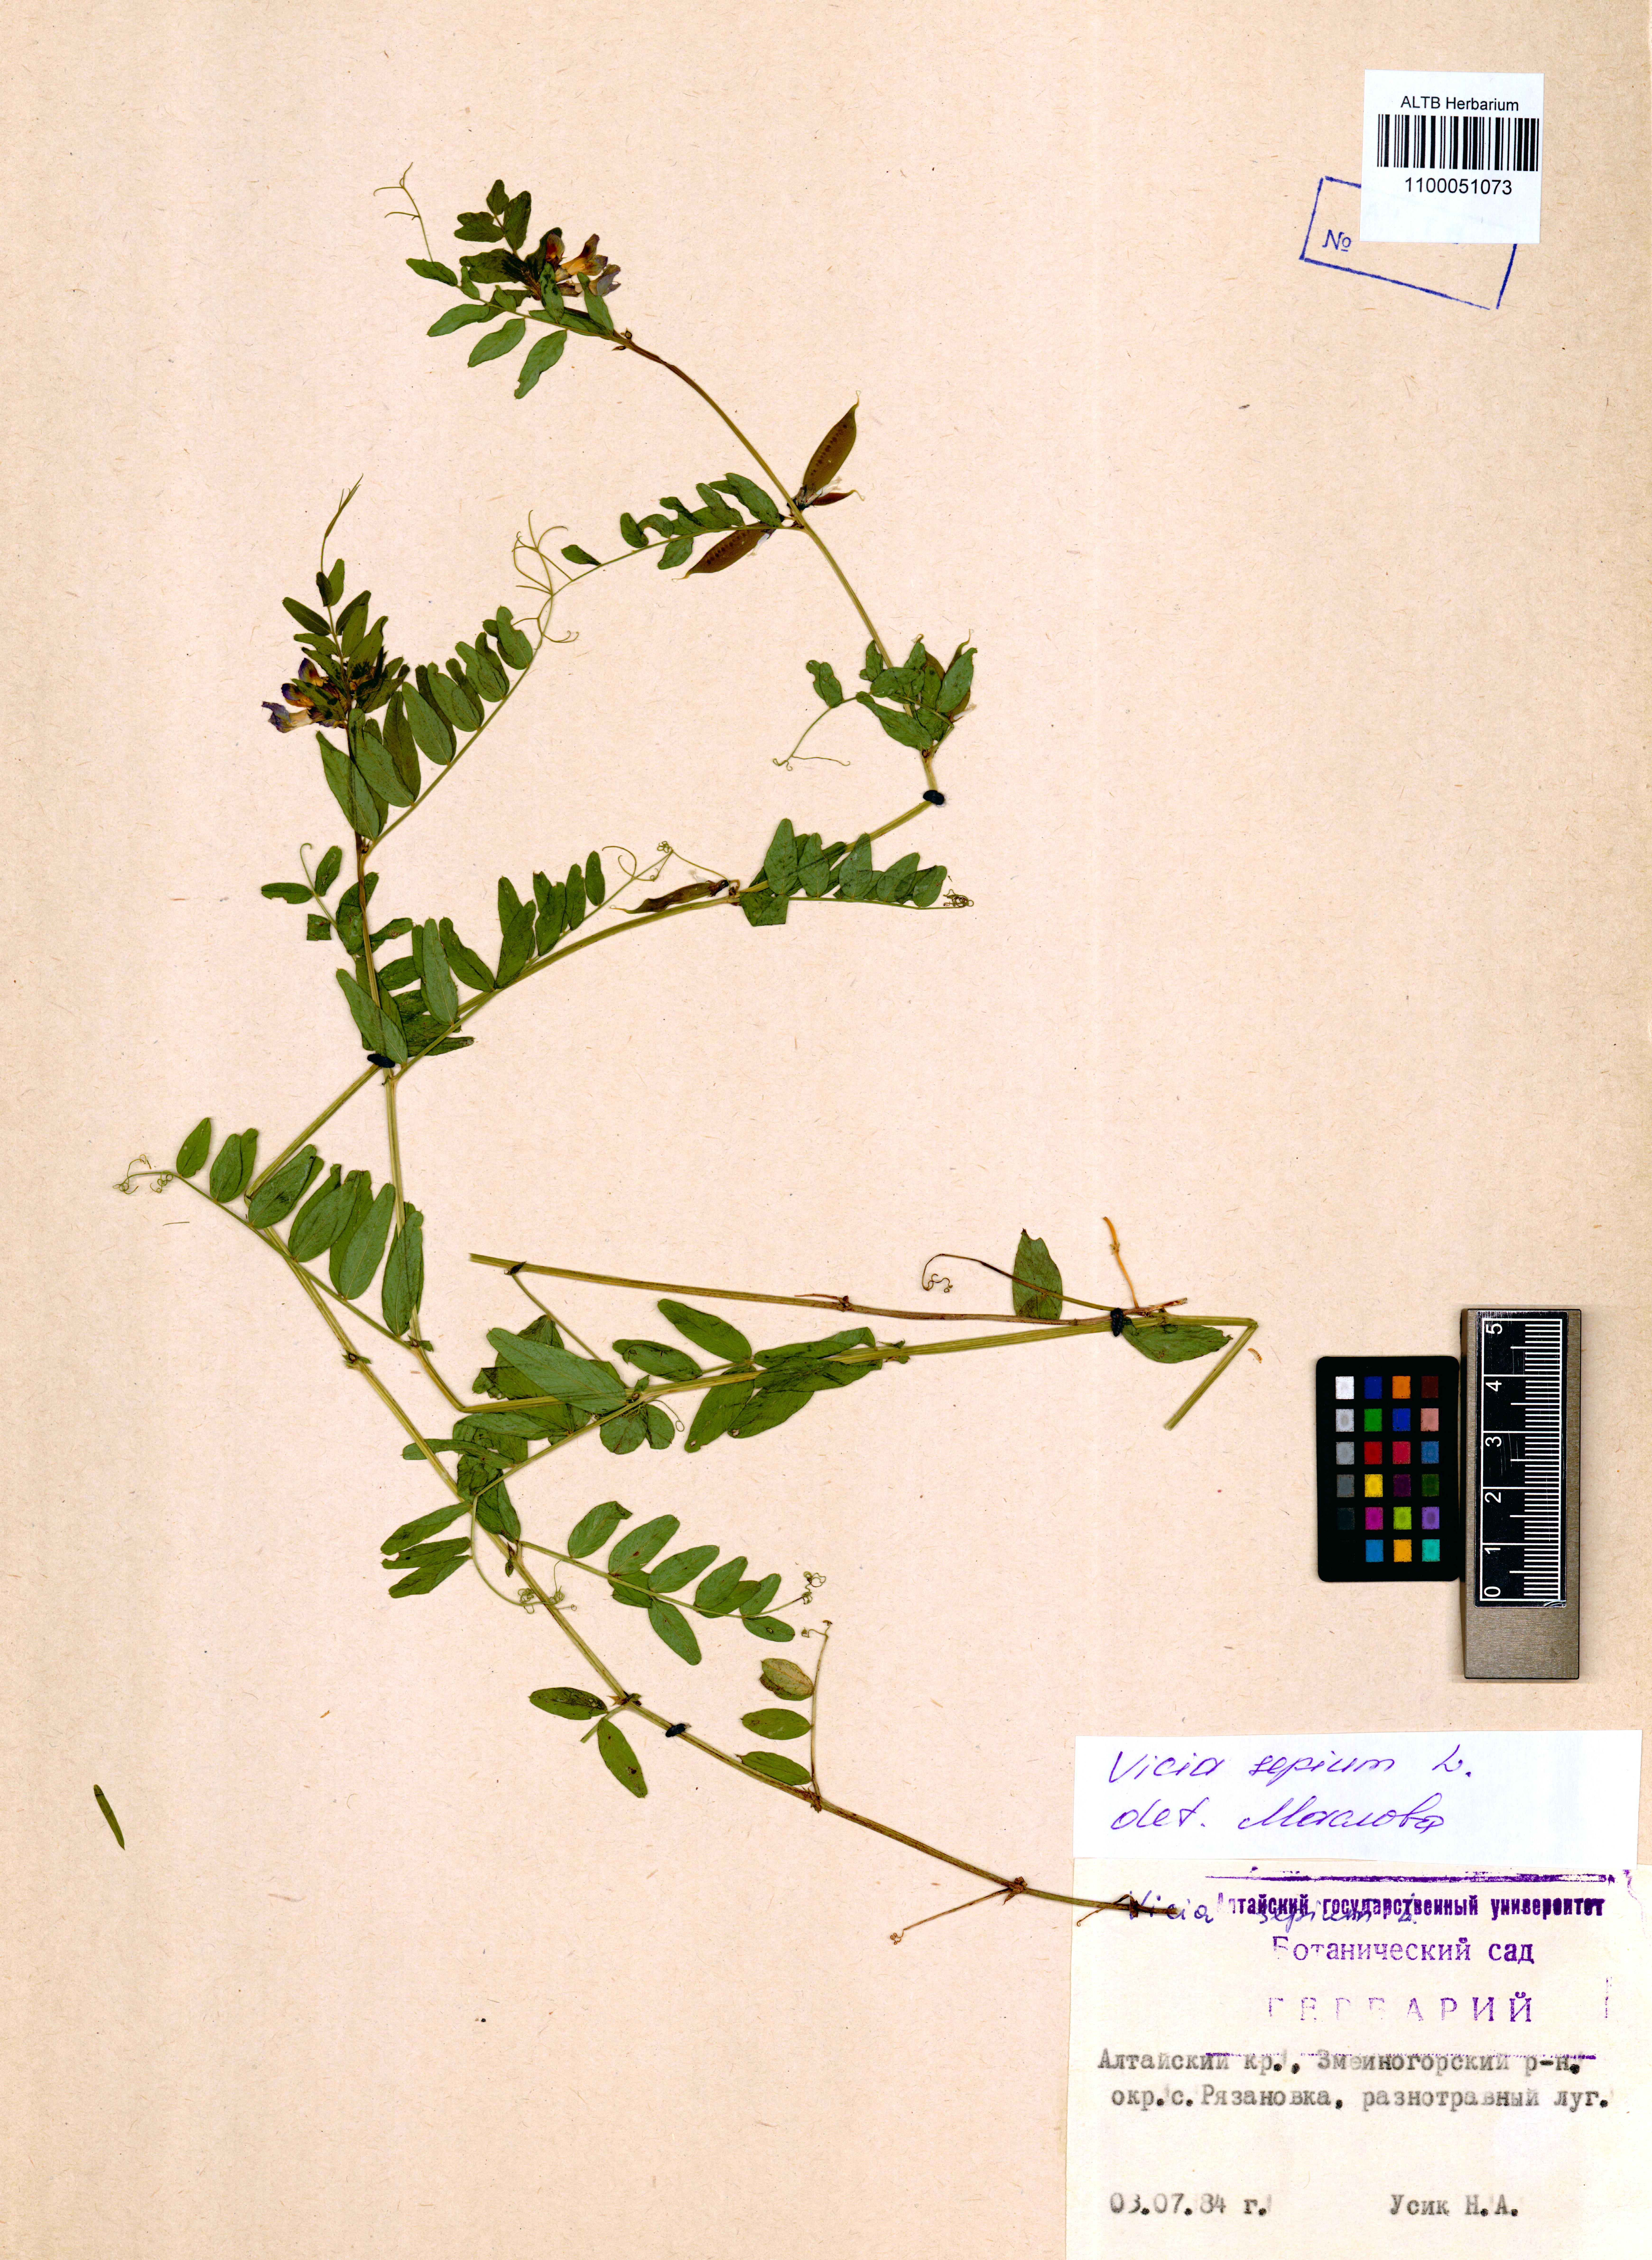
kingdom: Plantae
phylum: Tracheophyta
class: Magnoliopsida
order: Fabales
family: Fabaceae
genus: Vicia
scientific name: Vicia sepium
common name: Bush vetch
